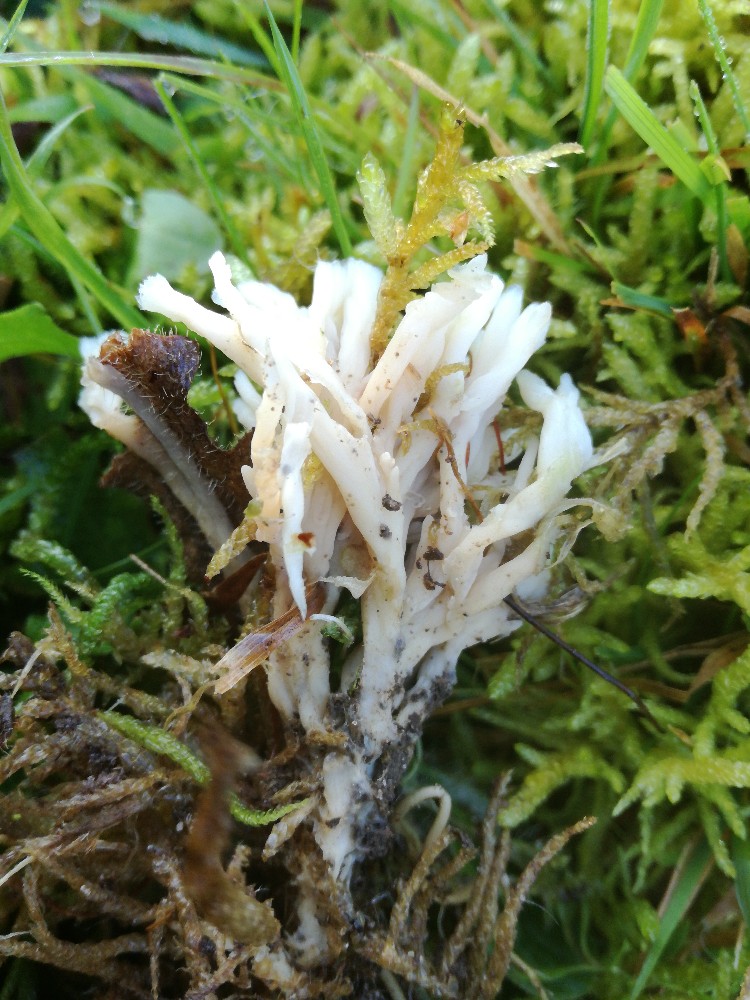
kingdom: Fungi
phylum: Basidiomycota
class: Agaricomycetes
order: Tremellodendropsidales
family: Tremellodendropsidaceae
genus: Tremellodendropsis
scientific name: Tremellodendropsis tuberosa
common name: bævrekølle
